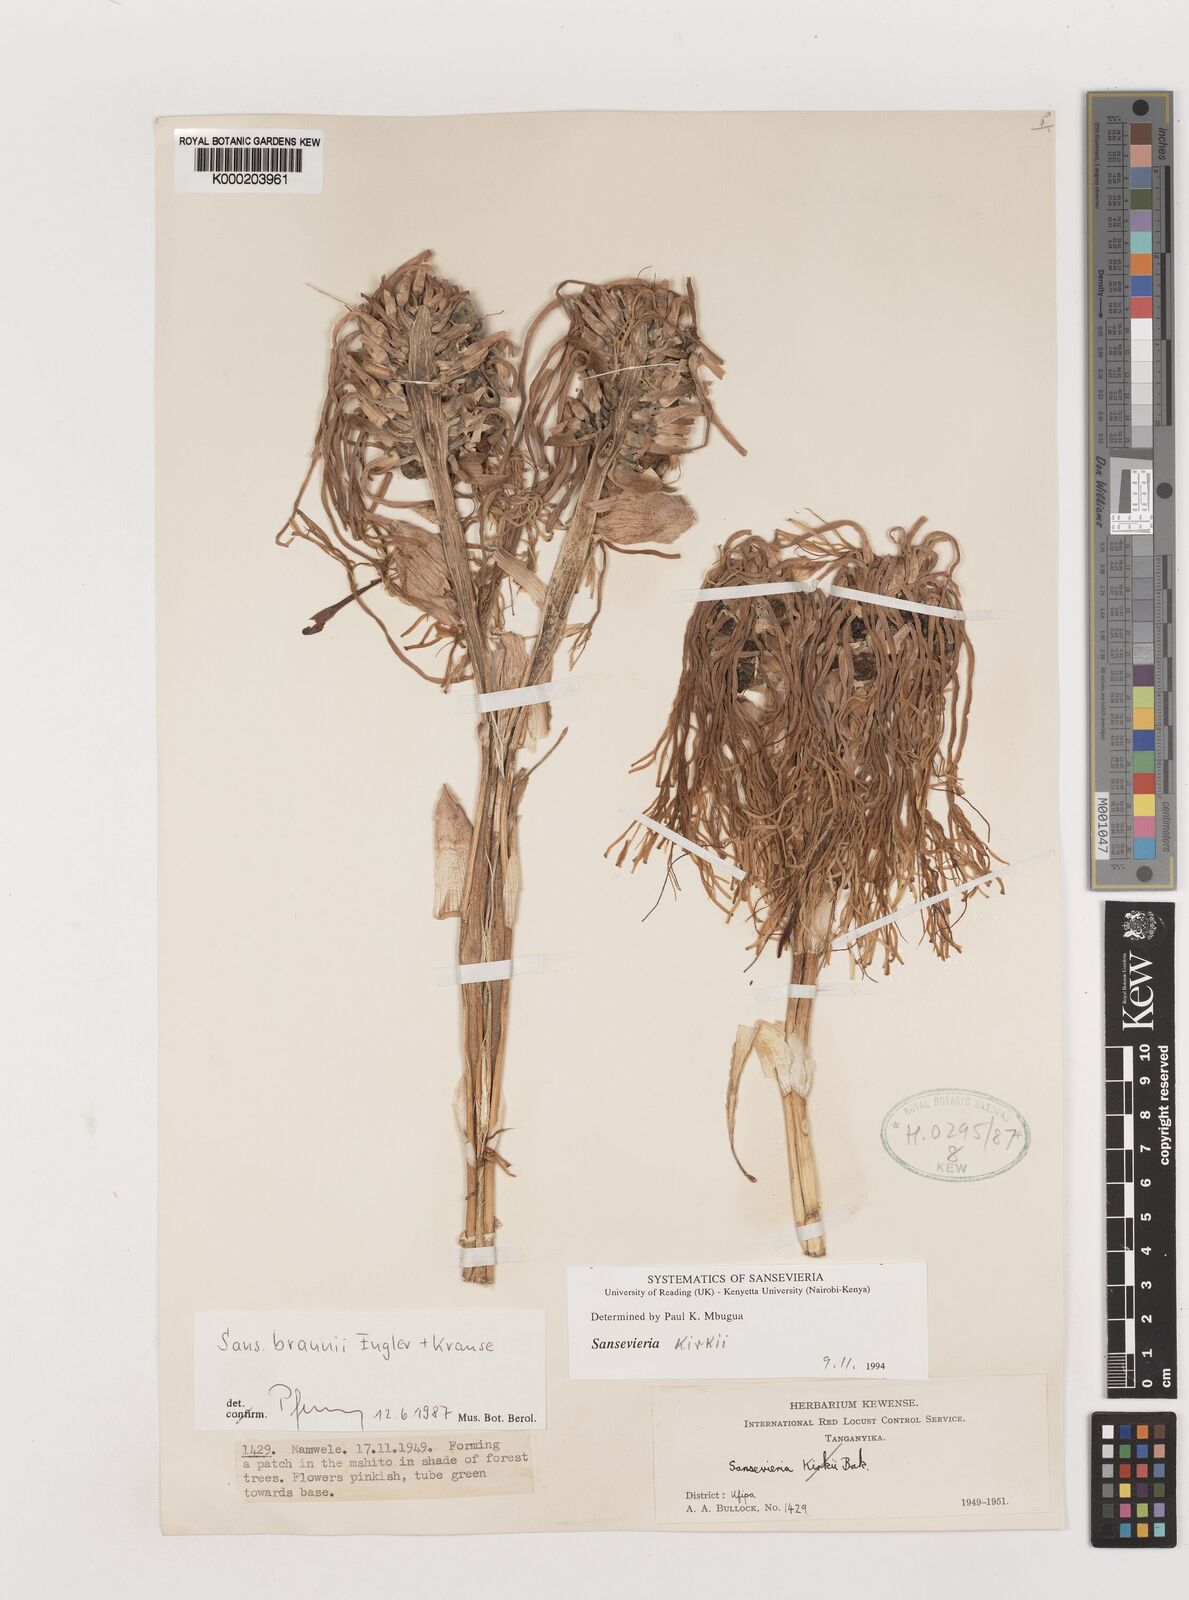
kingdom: Plantae
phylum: Tracheophyta
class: Liliopsida
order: Asparagales
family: Asparagaceae
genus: Dracaena
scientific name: Dracaena testudinea
